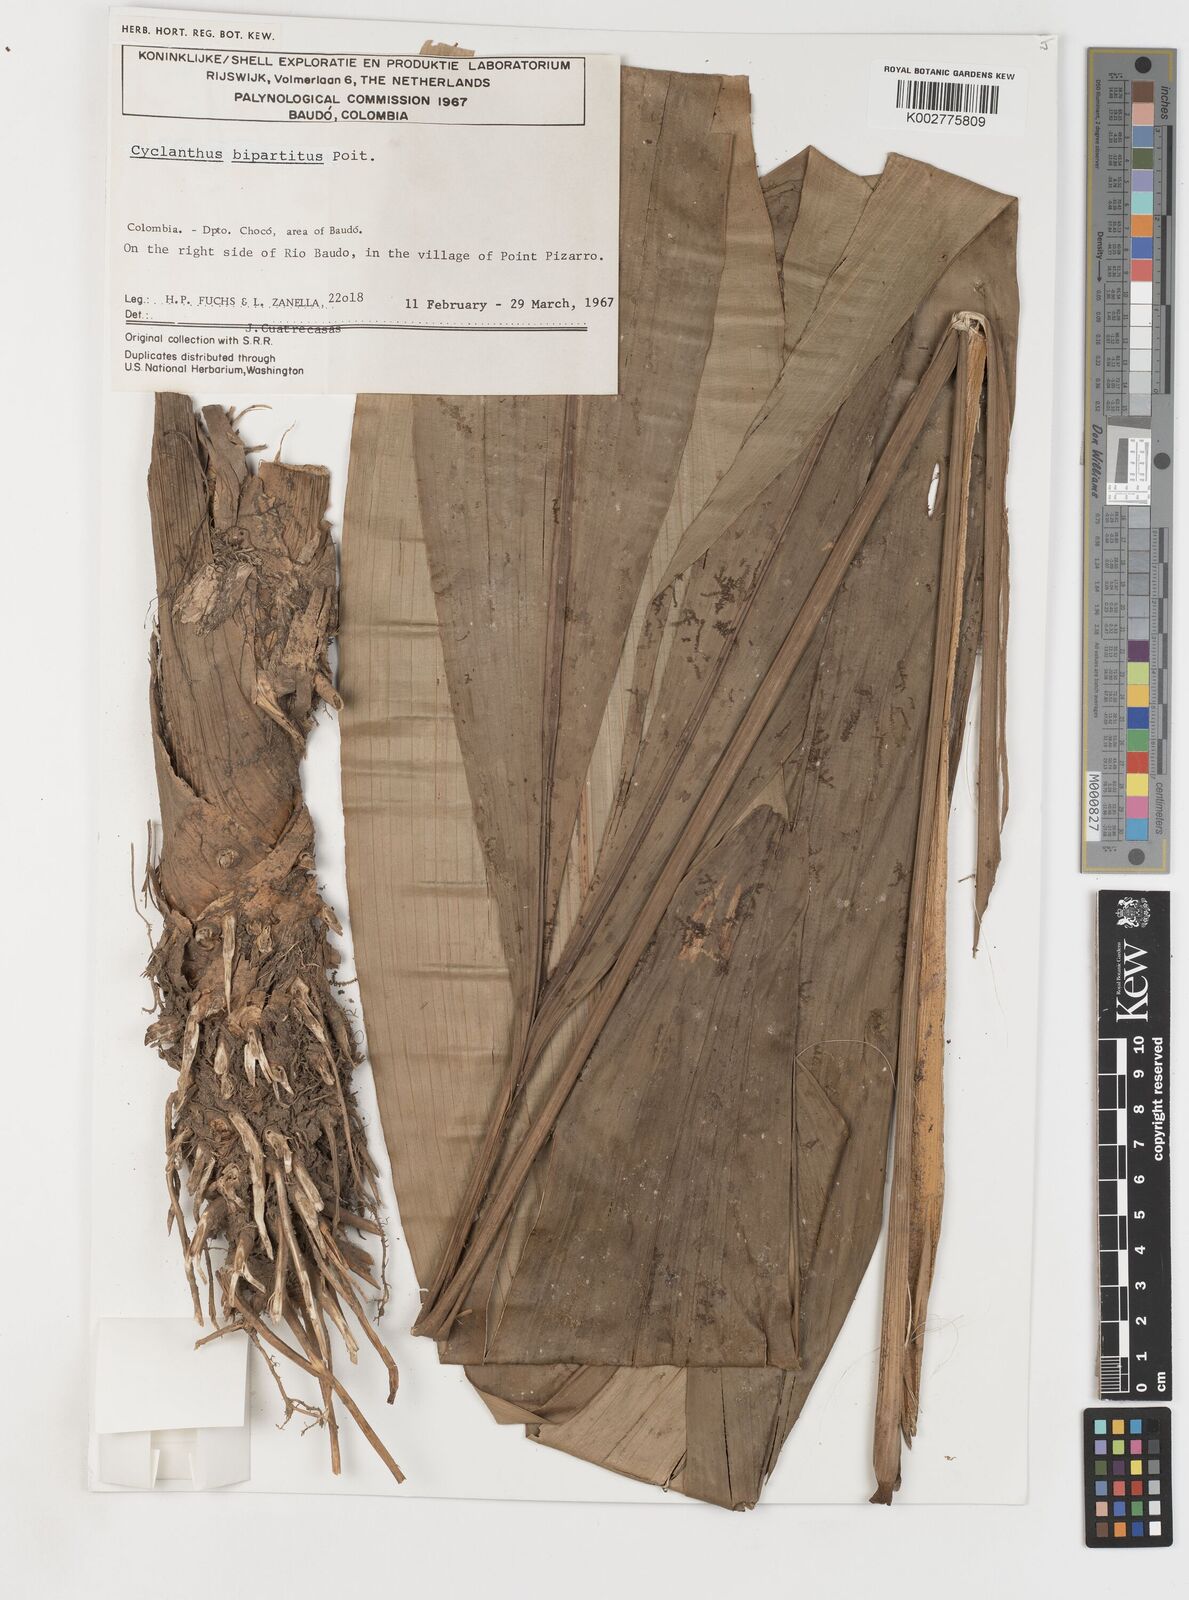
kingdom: Plantae
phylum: Tracheophyta
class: Liliopsida
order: Pandanales
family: Cyclanthaceae
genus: Cyclanthus
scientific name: Cyclanthus bipartitus
